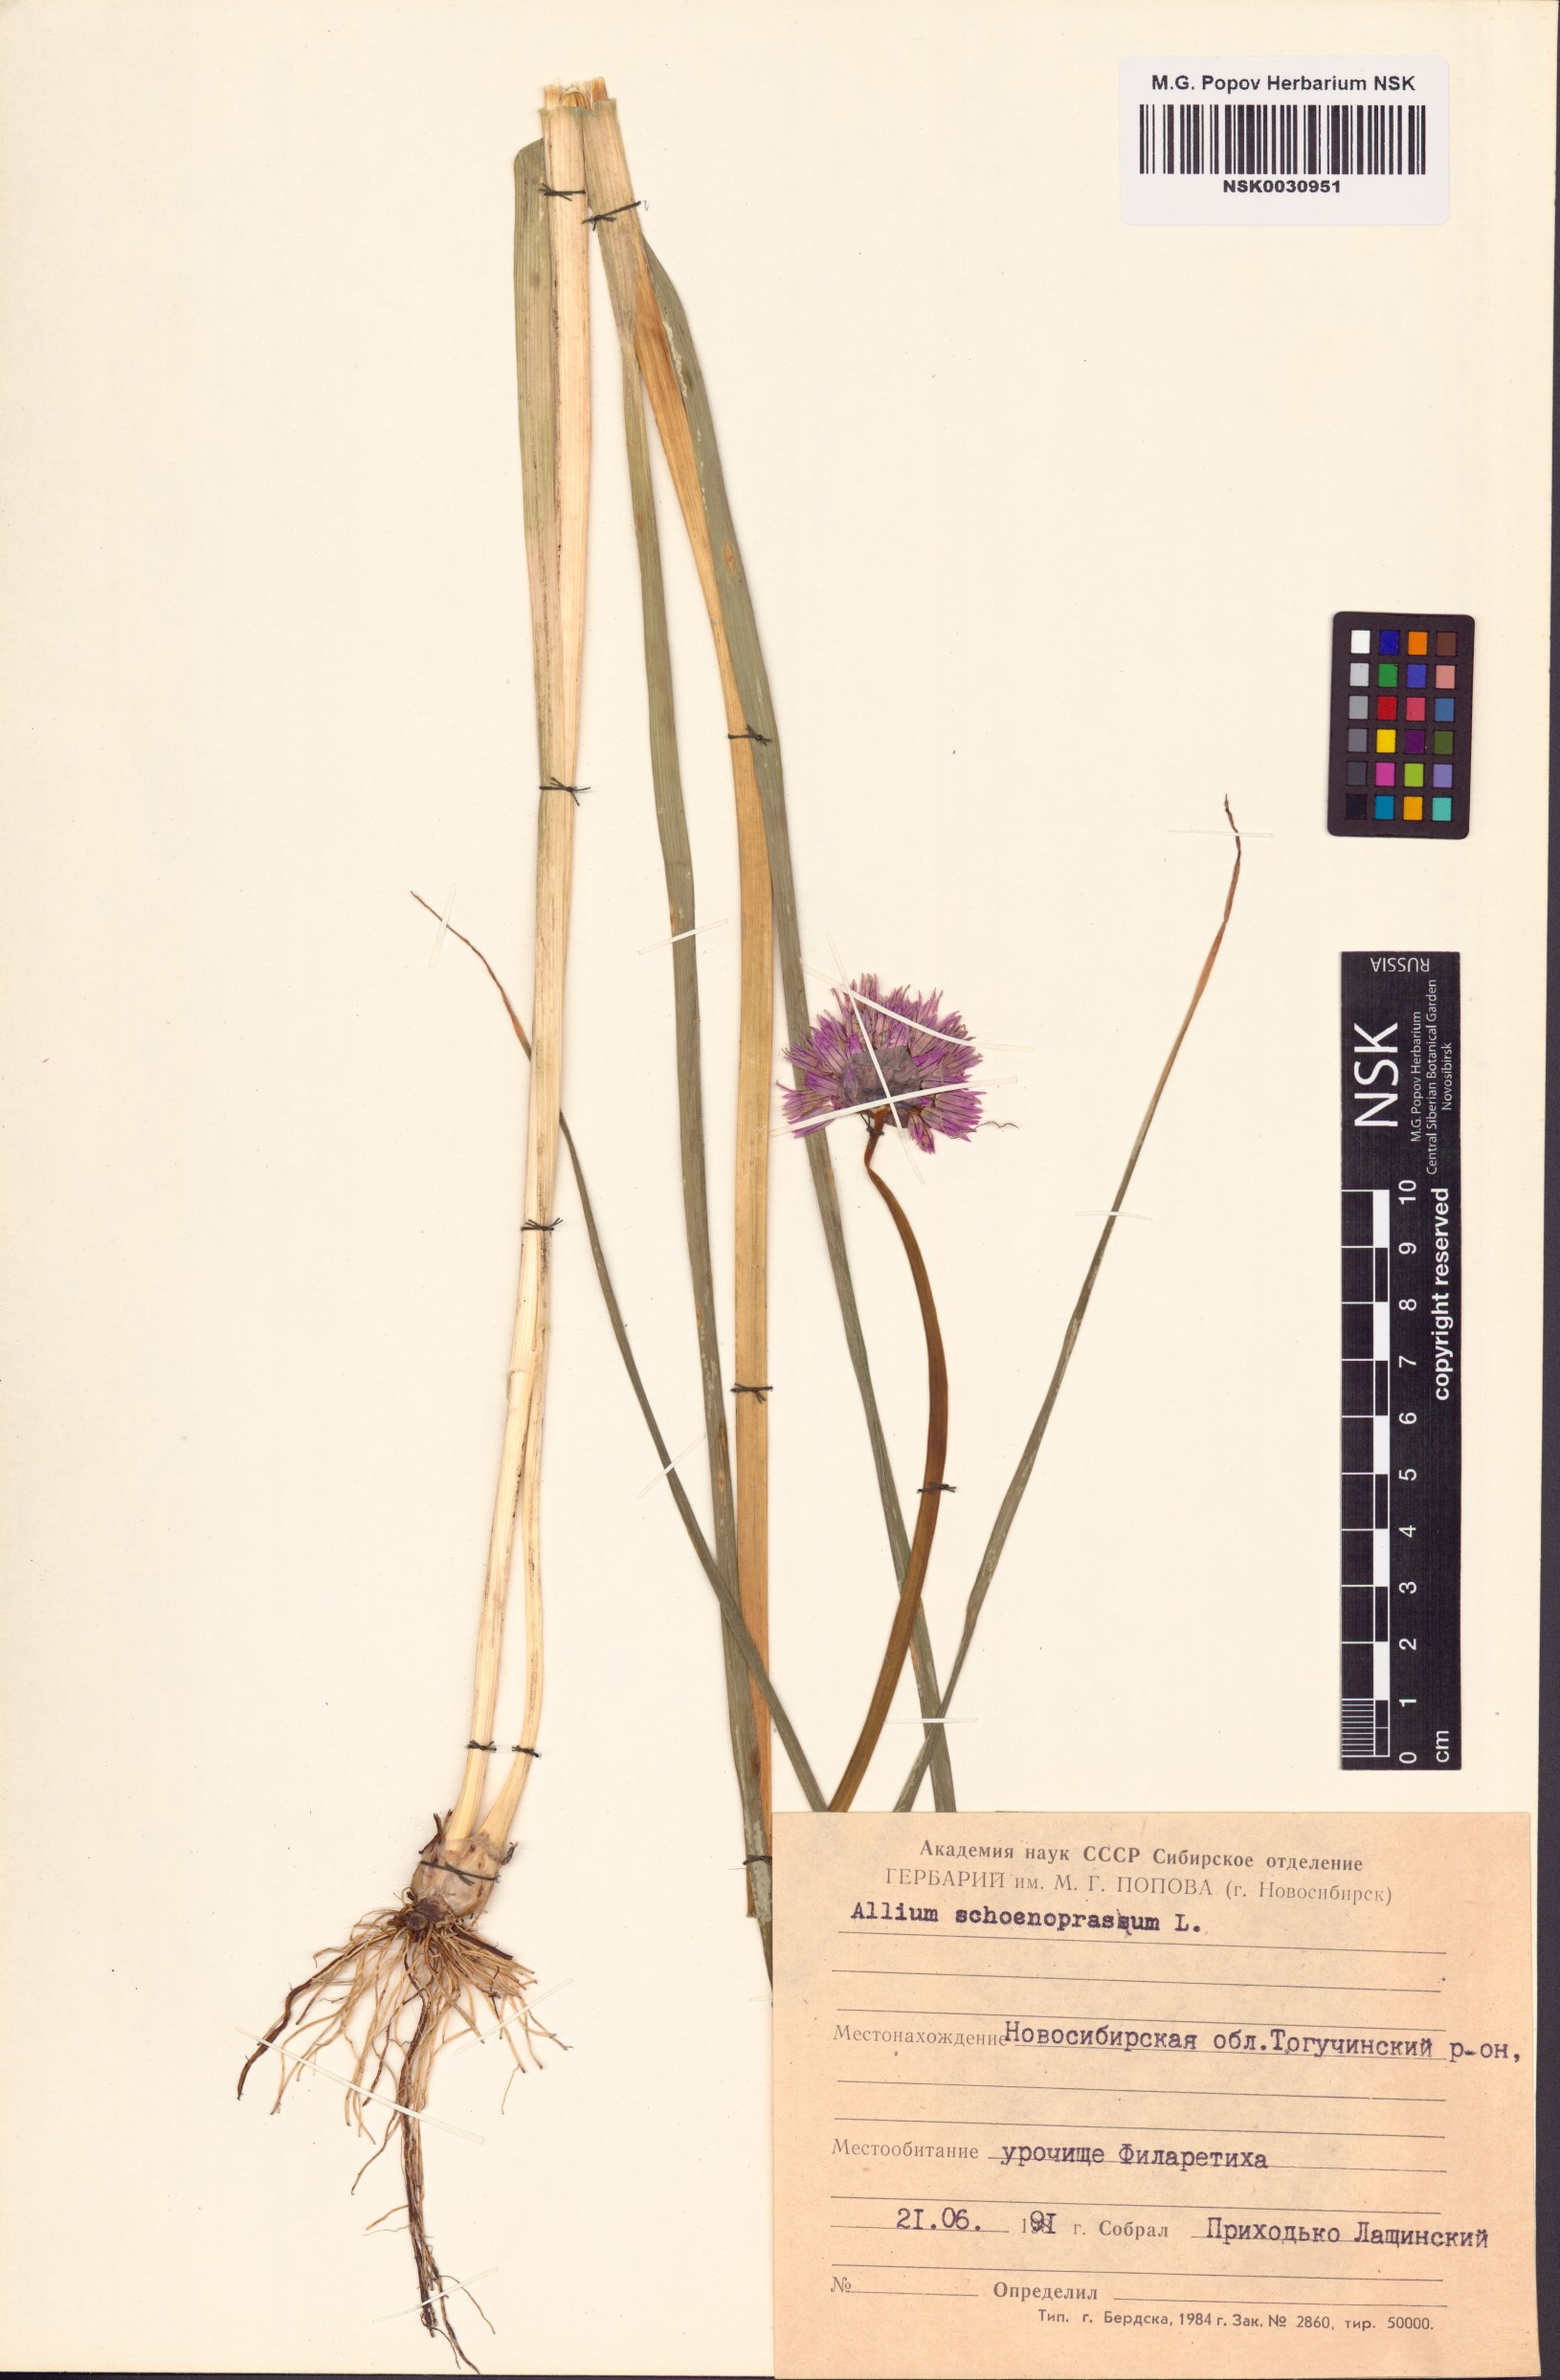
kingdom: Plantae
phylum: Tracheophyta
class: Liliopsida
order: Asparagales
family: Amaryllidaceae
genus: Allium
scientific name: Allium schoenoprasum
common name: Chives
